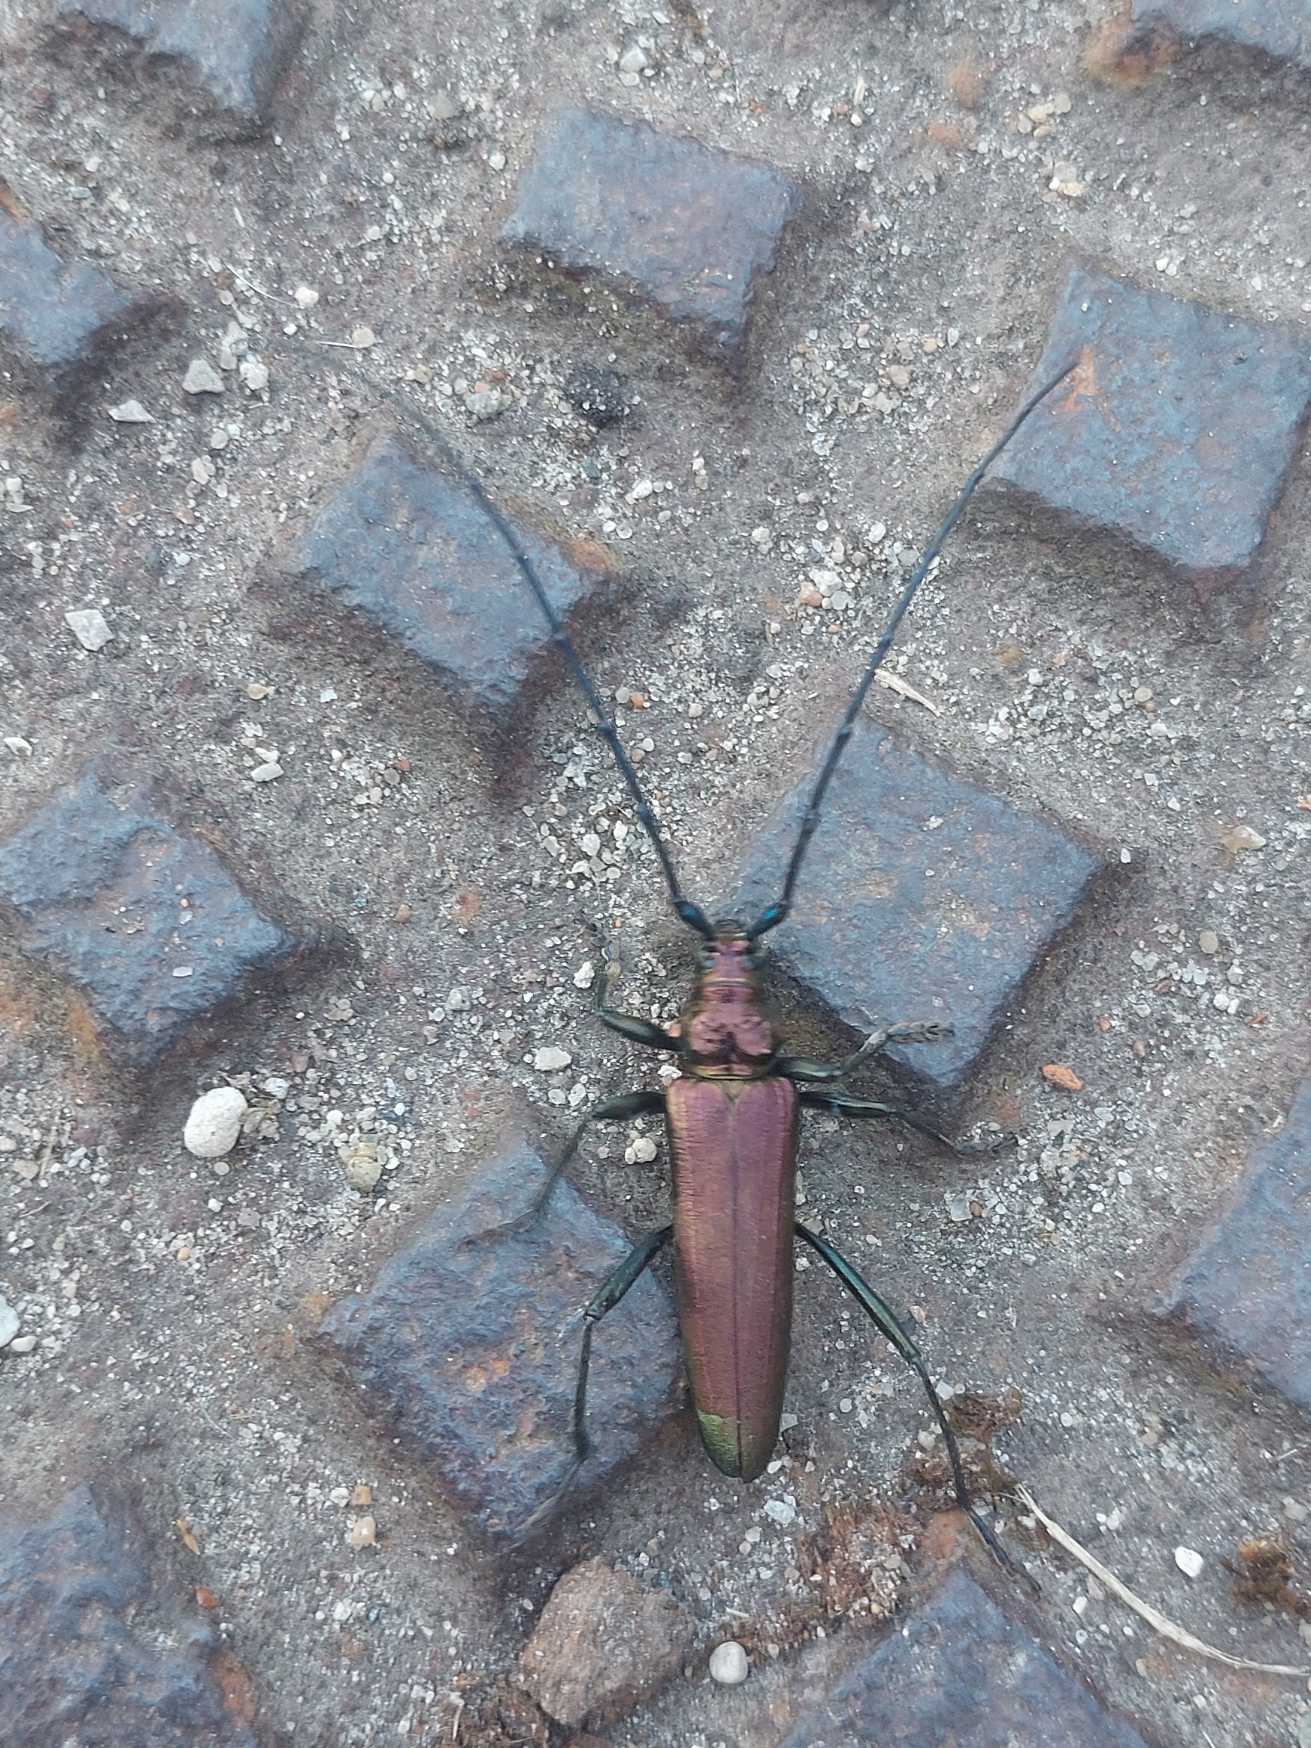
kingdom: Animalia
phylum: Arthropoda
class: Insecta
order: Coleoptera
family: Cerambycidae
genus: Aromia
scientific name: Aromia moschata
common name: Moskusbuk
